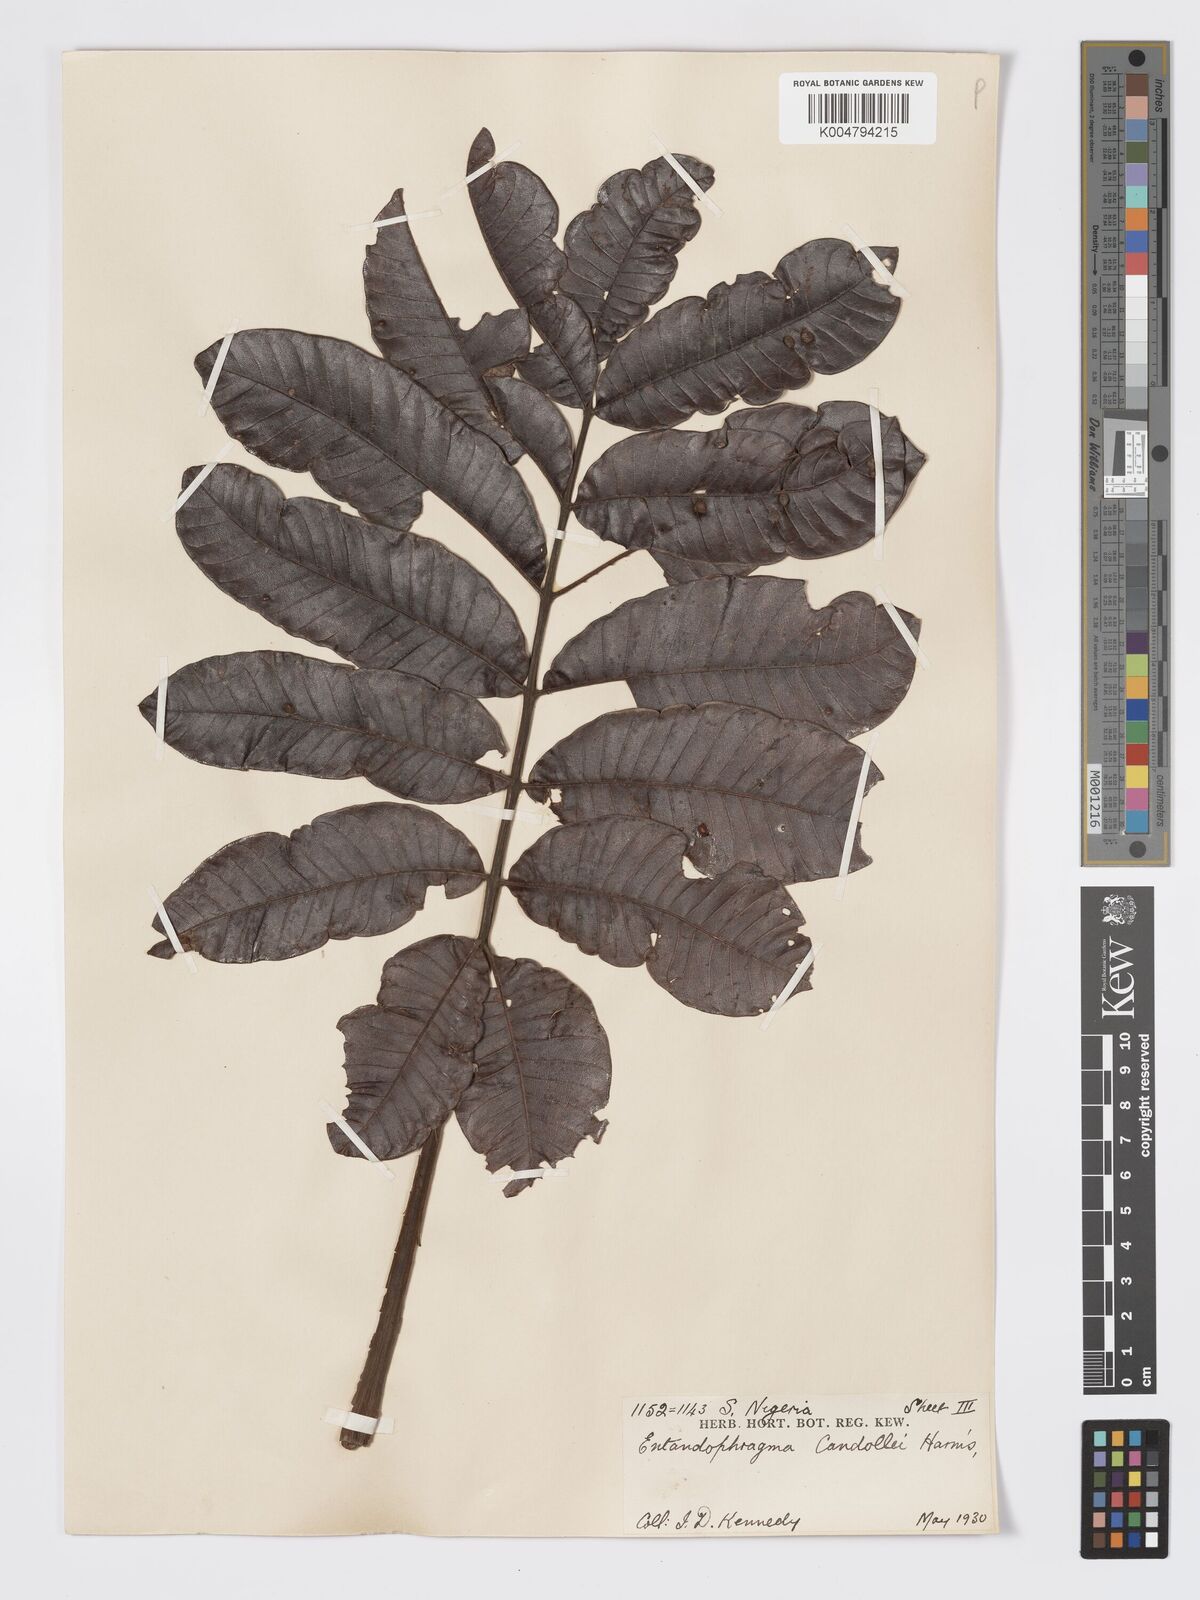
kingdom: Plantae
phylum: Tracheophyta
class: Magnoliopsida
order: Sapindales
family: Meliaceae
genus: Entandrophragma
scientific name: Entandrophragma candollei
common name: Cedar kokoti
